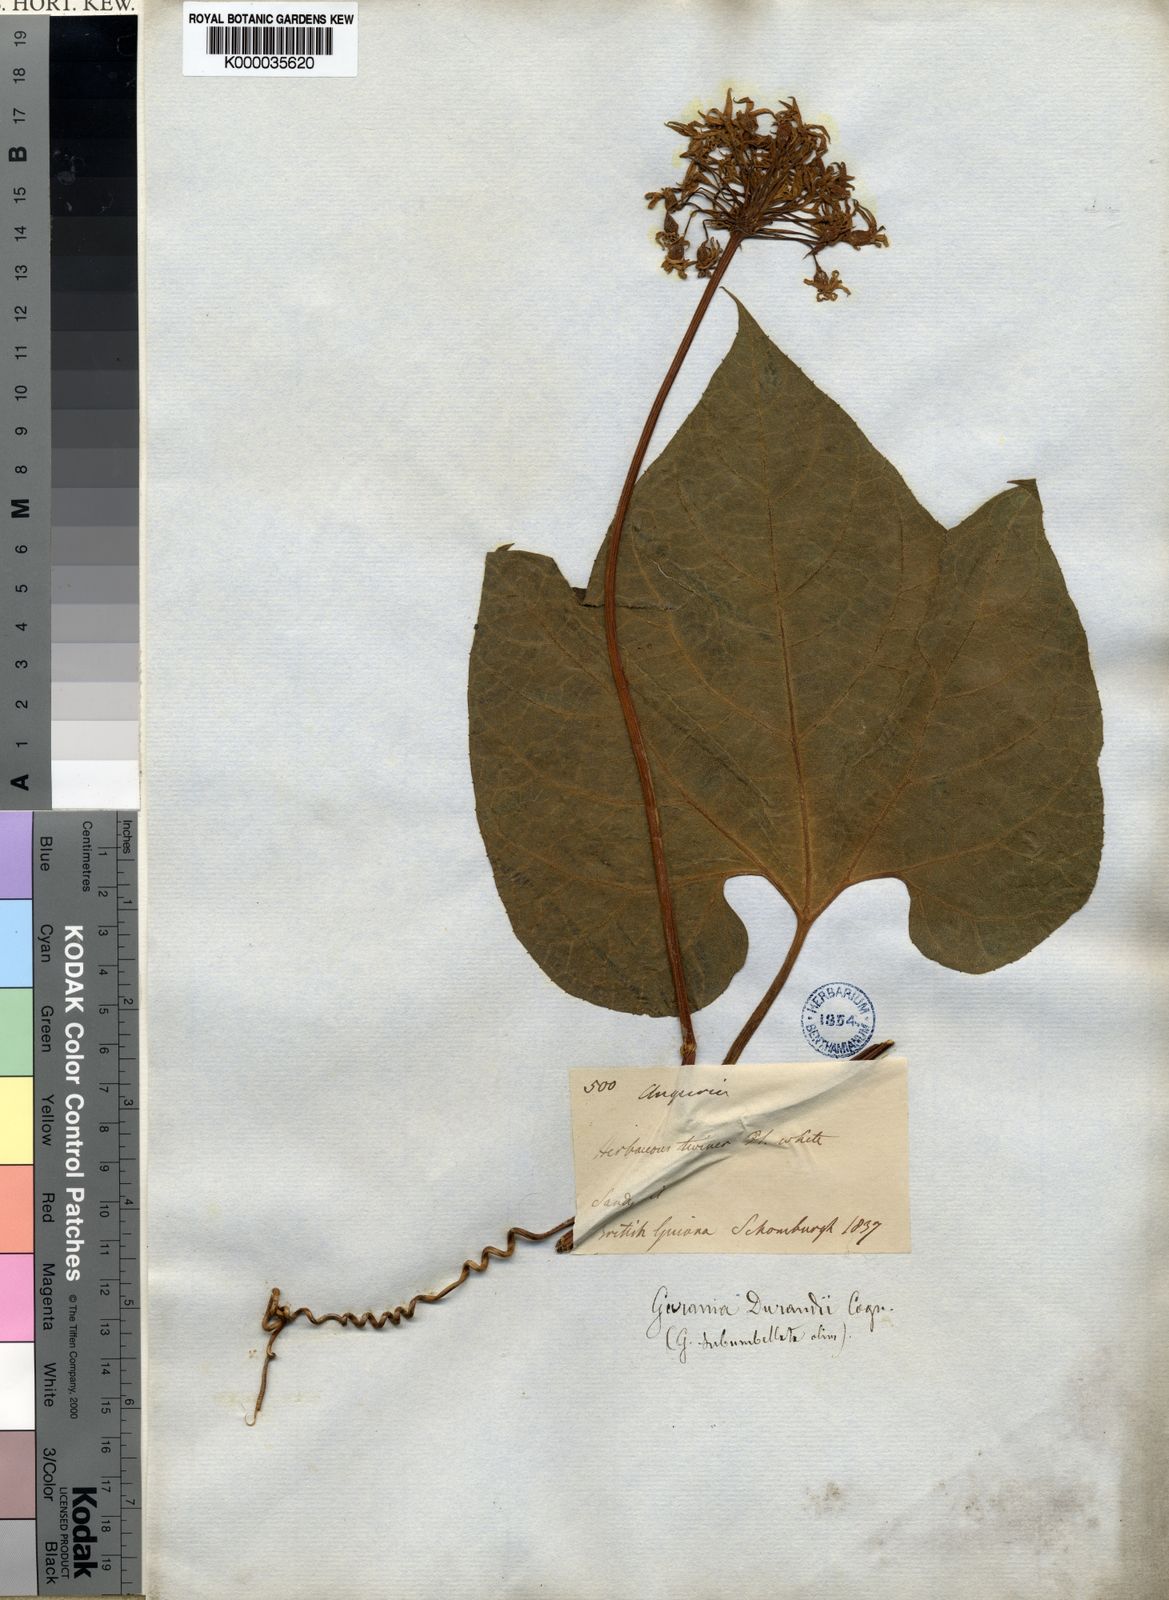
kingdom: Plantae
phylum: Tracheophyta
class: Magnoliopsida
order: Cucurbitales
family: Cucurbitaceae
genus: Gurania
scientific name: Gurania subumbellata
